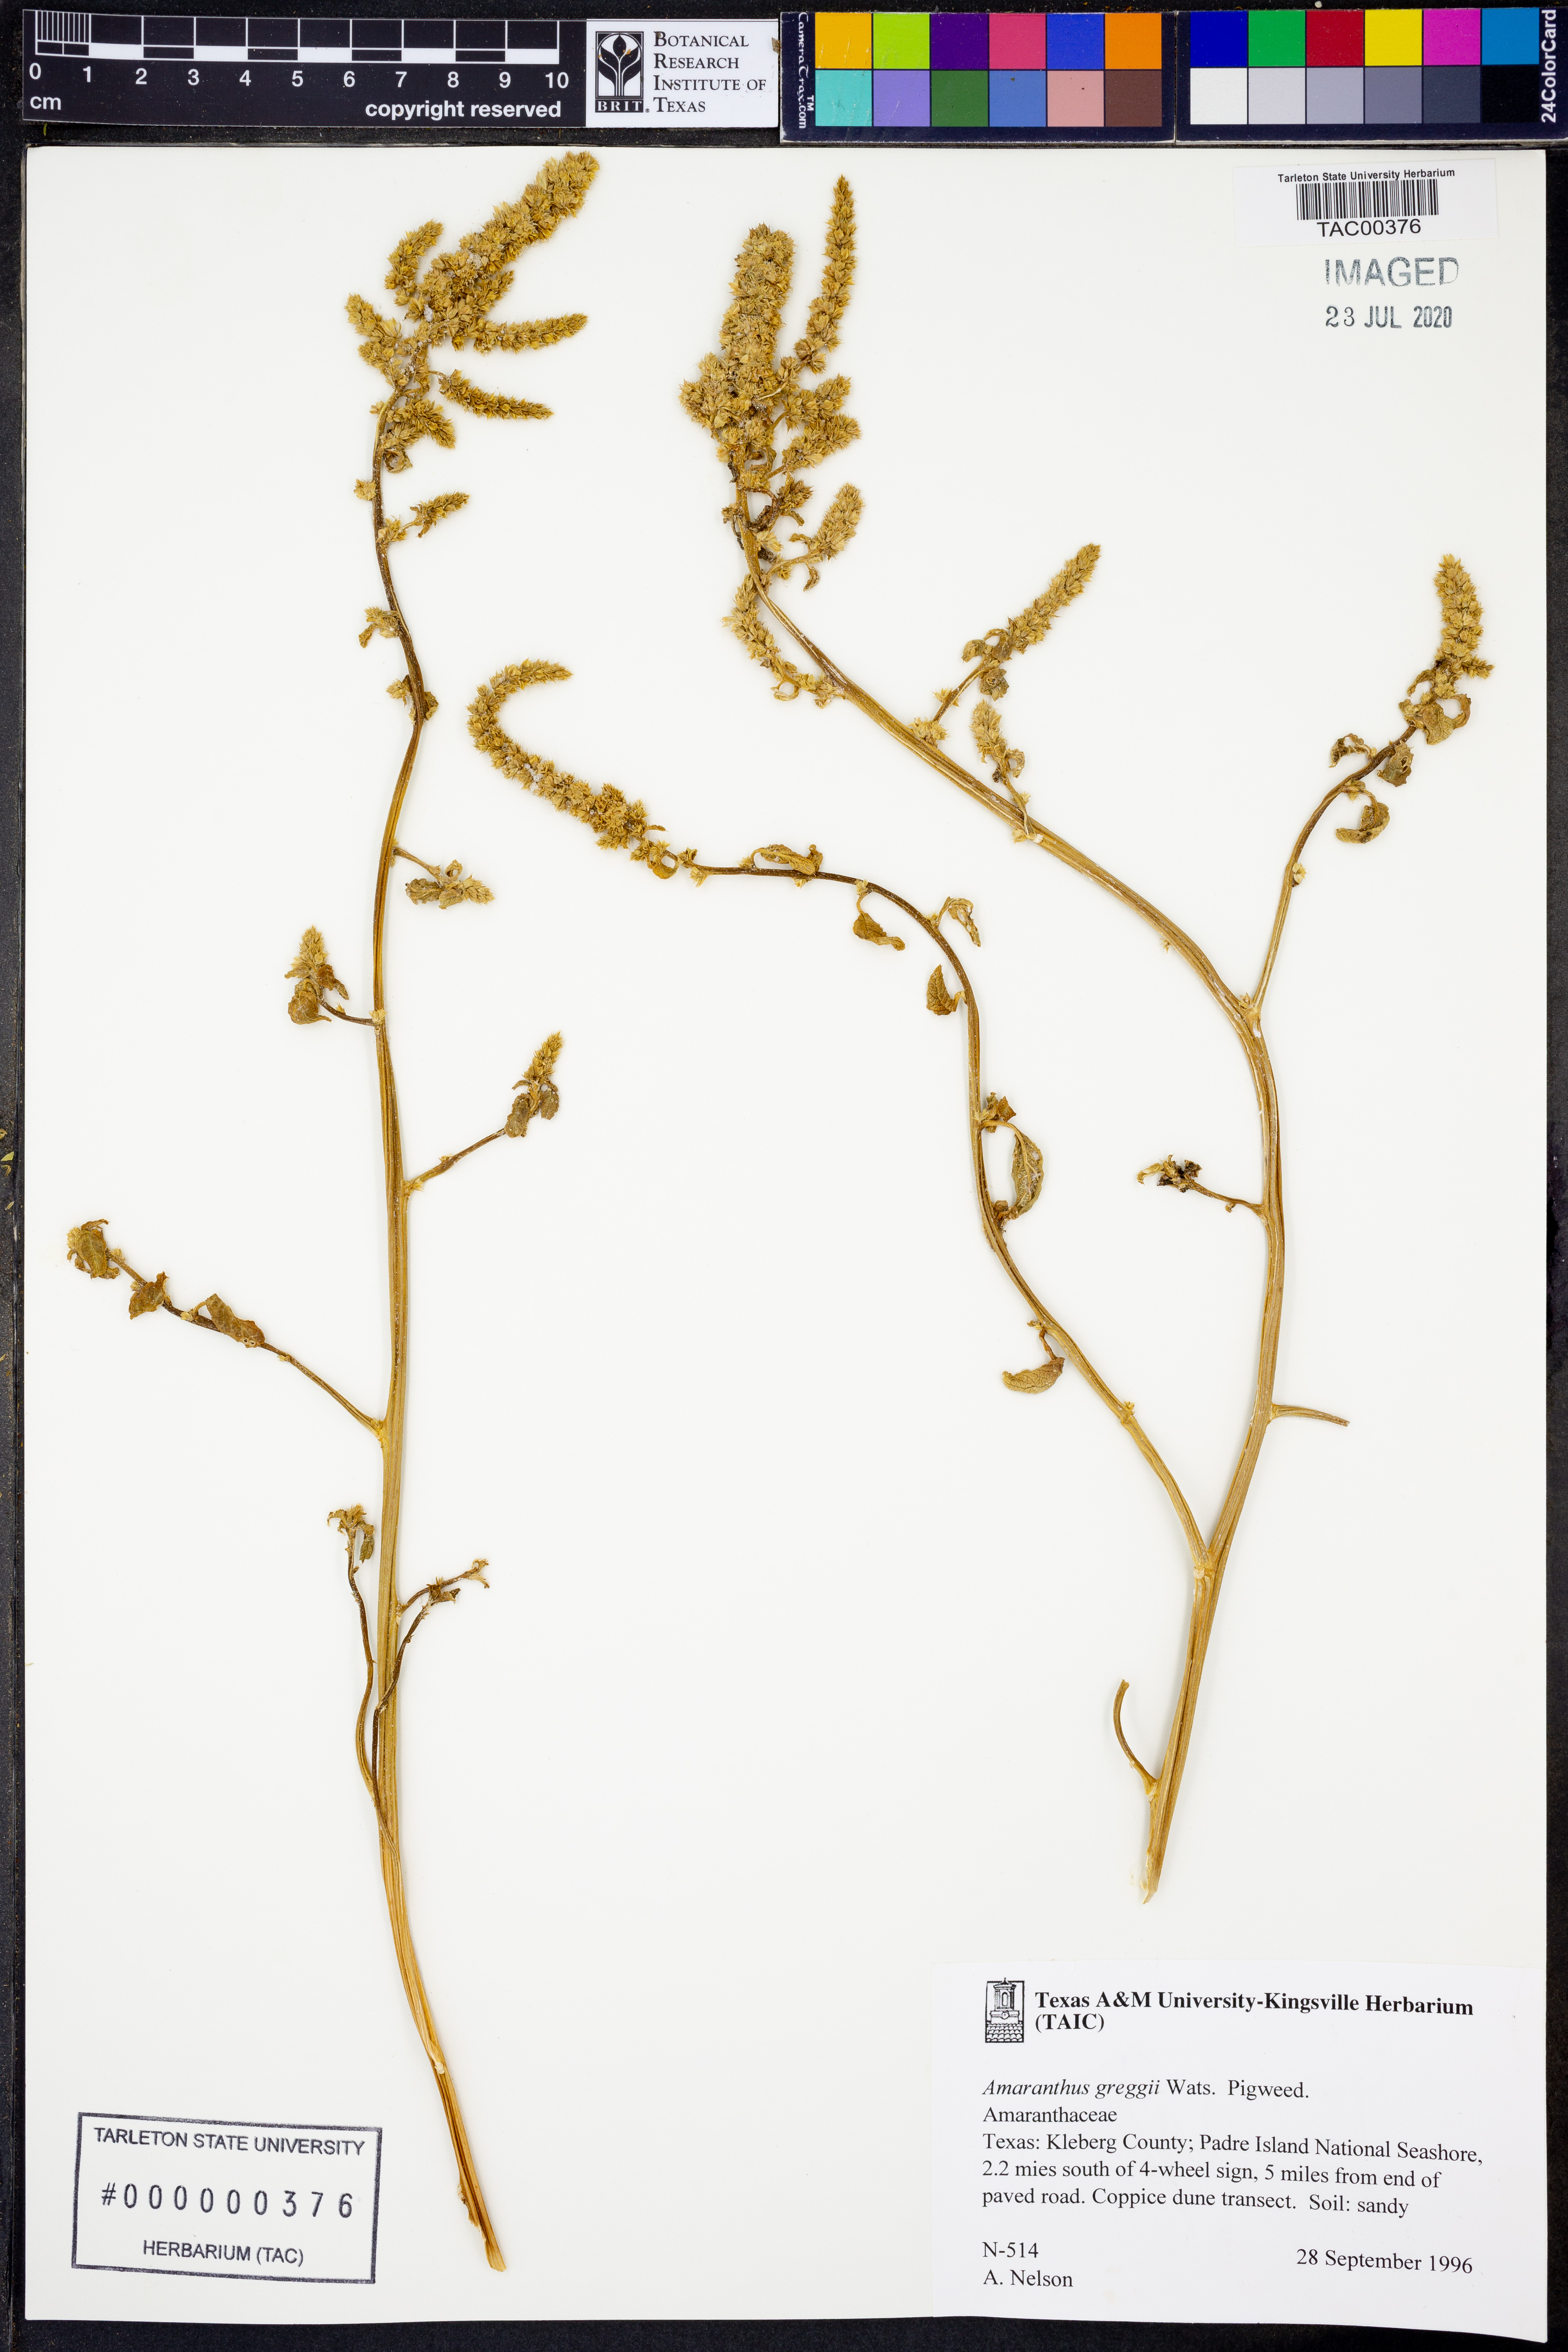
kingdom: Plantae
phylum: Tracheophyta
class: Magnoliopsida
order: Caryophyllales
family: Amaranthaceae
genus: Amaranthus
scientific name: Amaranthus greggii
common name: Josiah amaranth
